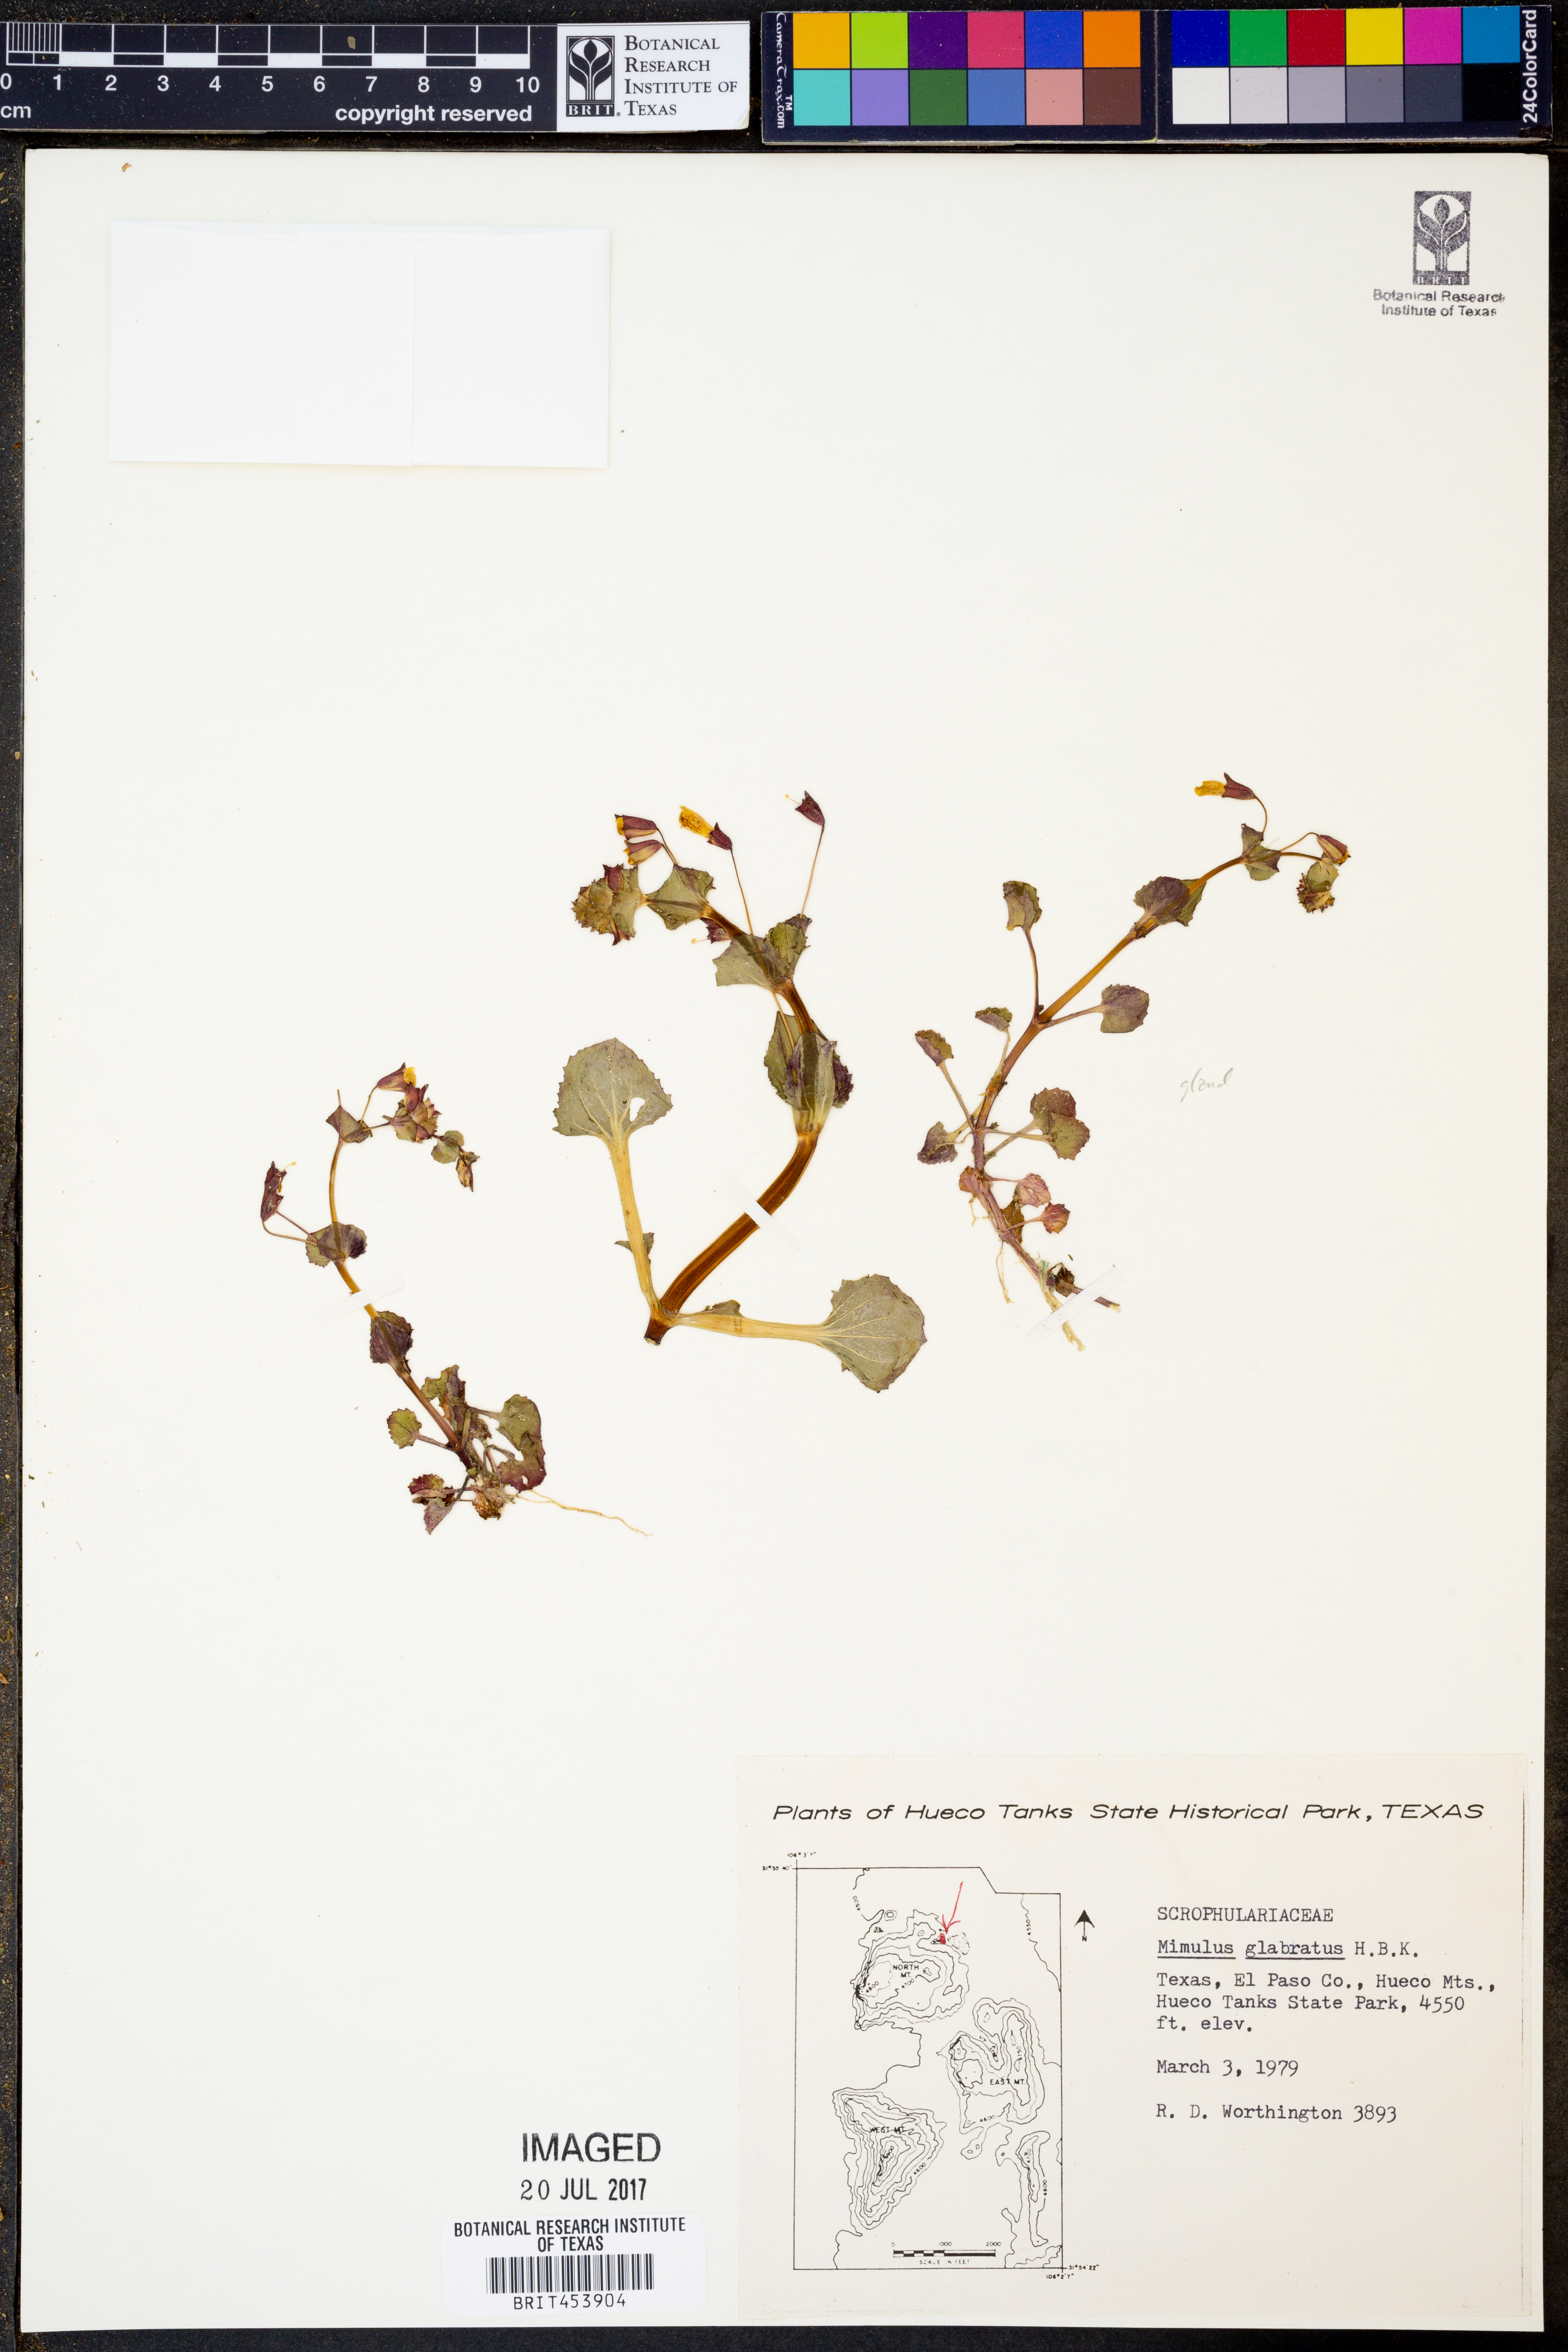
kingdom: Plantae
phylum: Tracheophyta
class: Magnoliopsida
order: Lamiales
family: Phrymaceae
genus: Erythranthe
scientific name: Erythranthe glabrata
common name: Round-leaved monkeyflower
